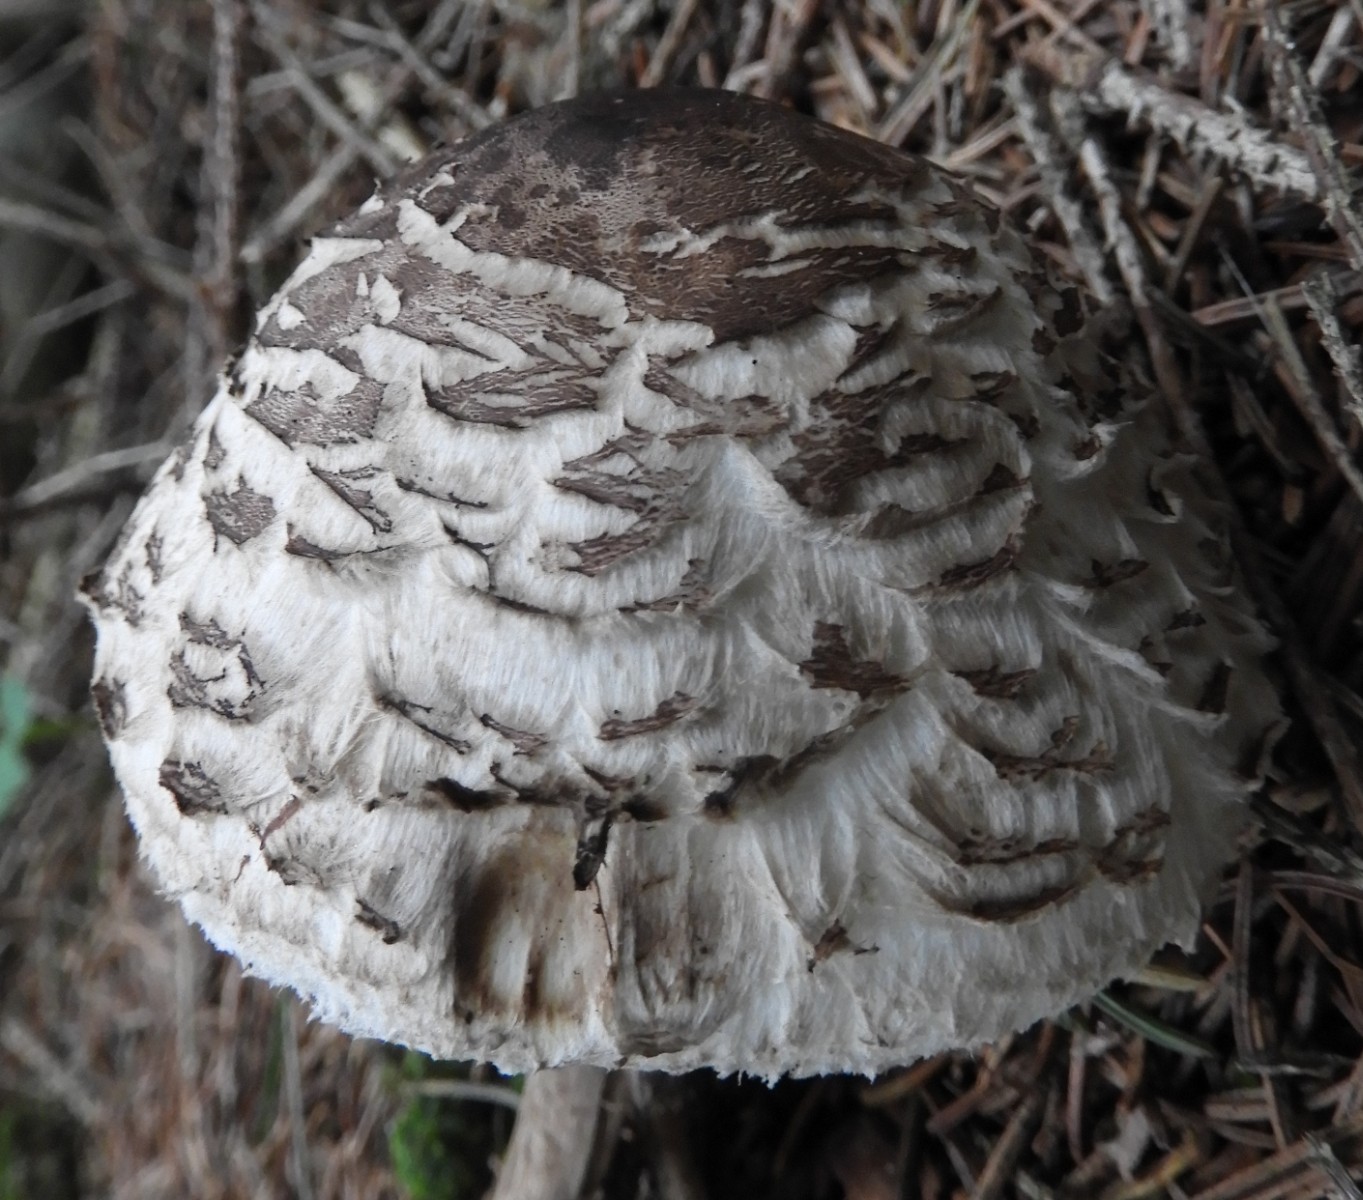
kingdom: Fungi
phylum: Basidiomycota
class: Agaricomycetes
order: Agaricales
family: Agaricaceae
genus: Chlorophyllum
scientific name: Chlorophyllum olivieri
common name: almindelig rabarberhat
